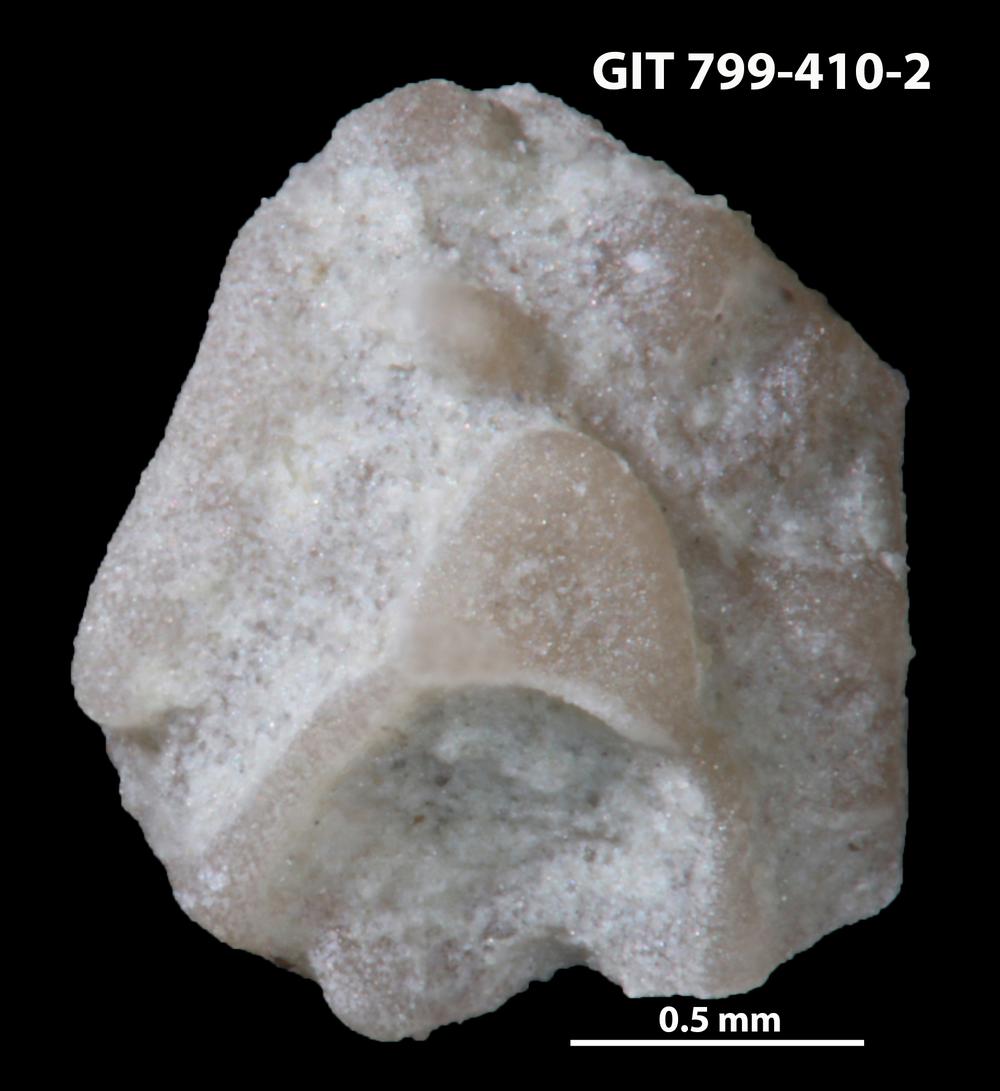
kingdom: Animalia
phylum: Echinodermata
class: Echinoidea
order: Bothriocidaroida
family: Bothriocidaridae
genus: Neobothriocidaris
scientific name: Neobothriocidaris
